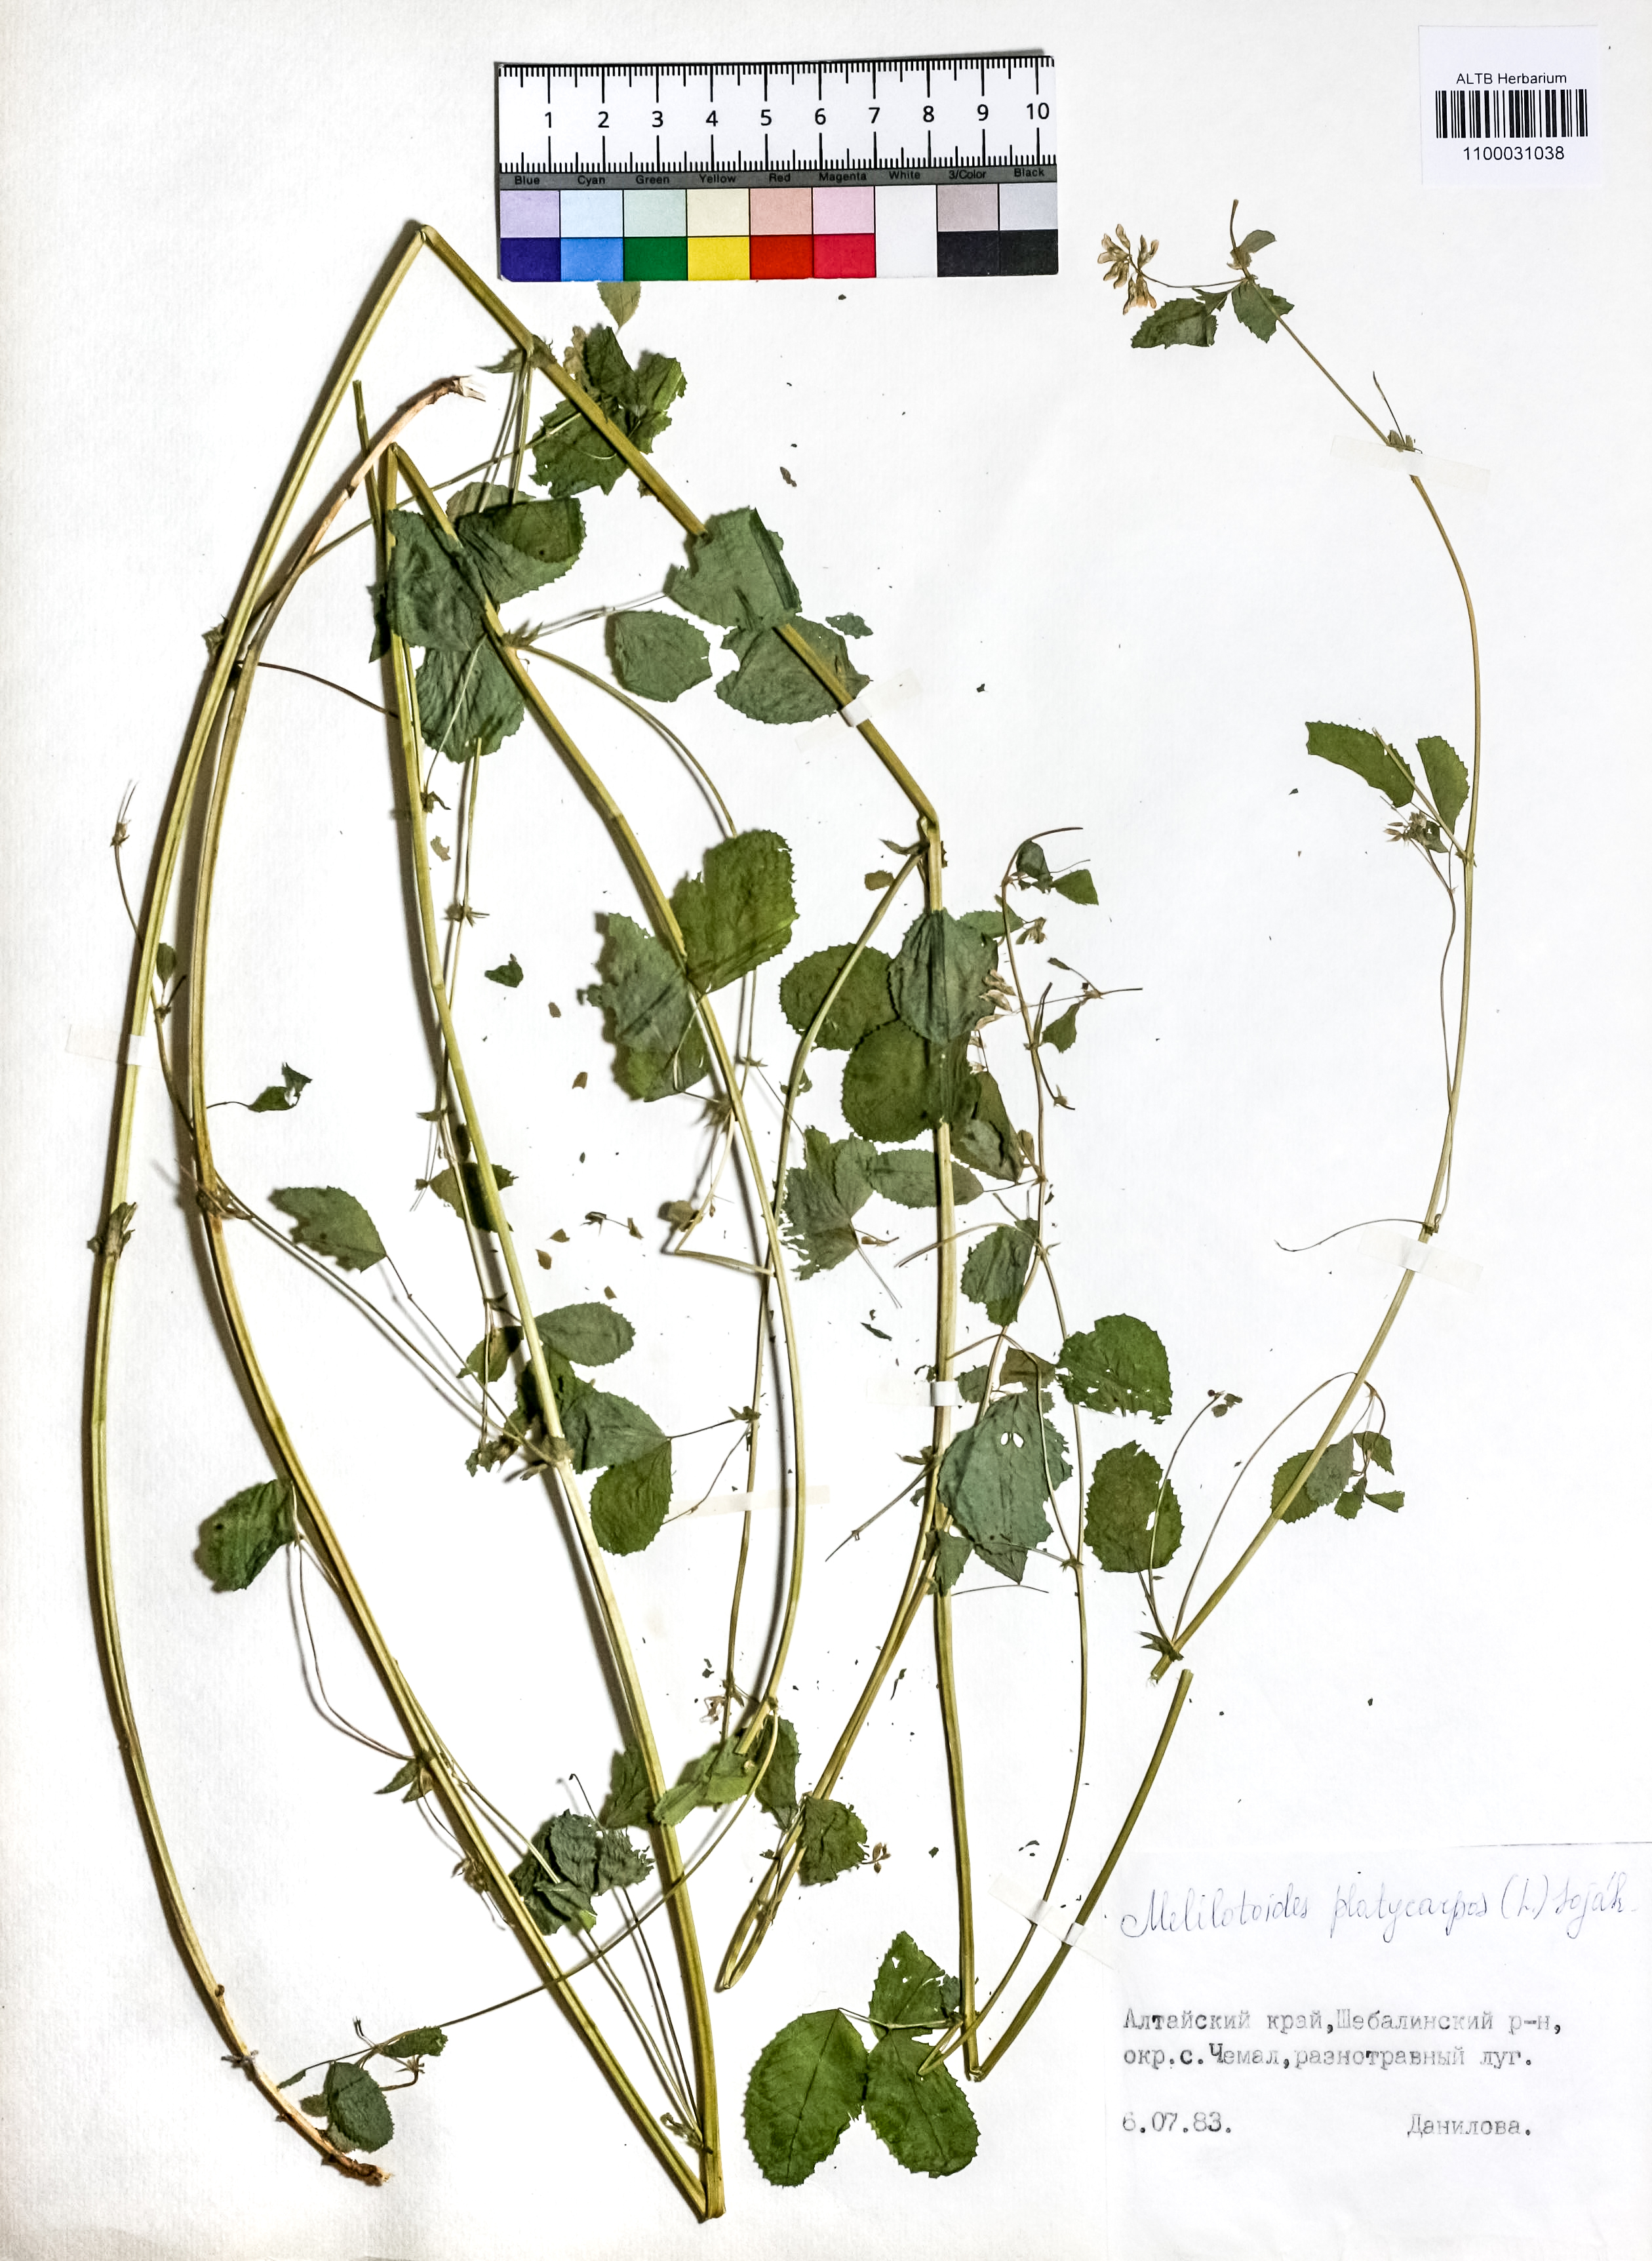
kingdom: Plantae
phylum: Tracheophyta
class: Magnoliopsida
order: Fabales
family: Fabaceae
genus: Medicago
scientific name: Medicago platycarpos
